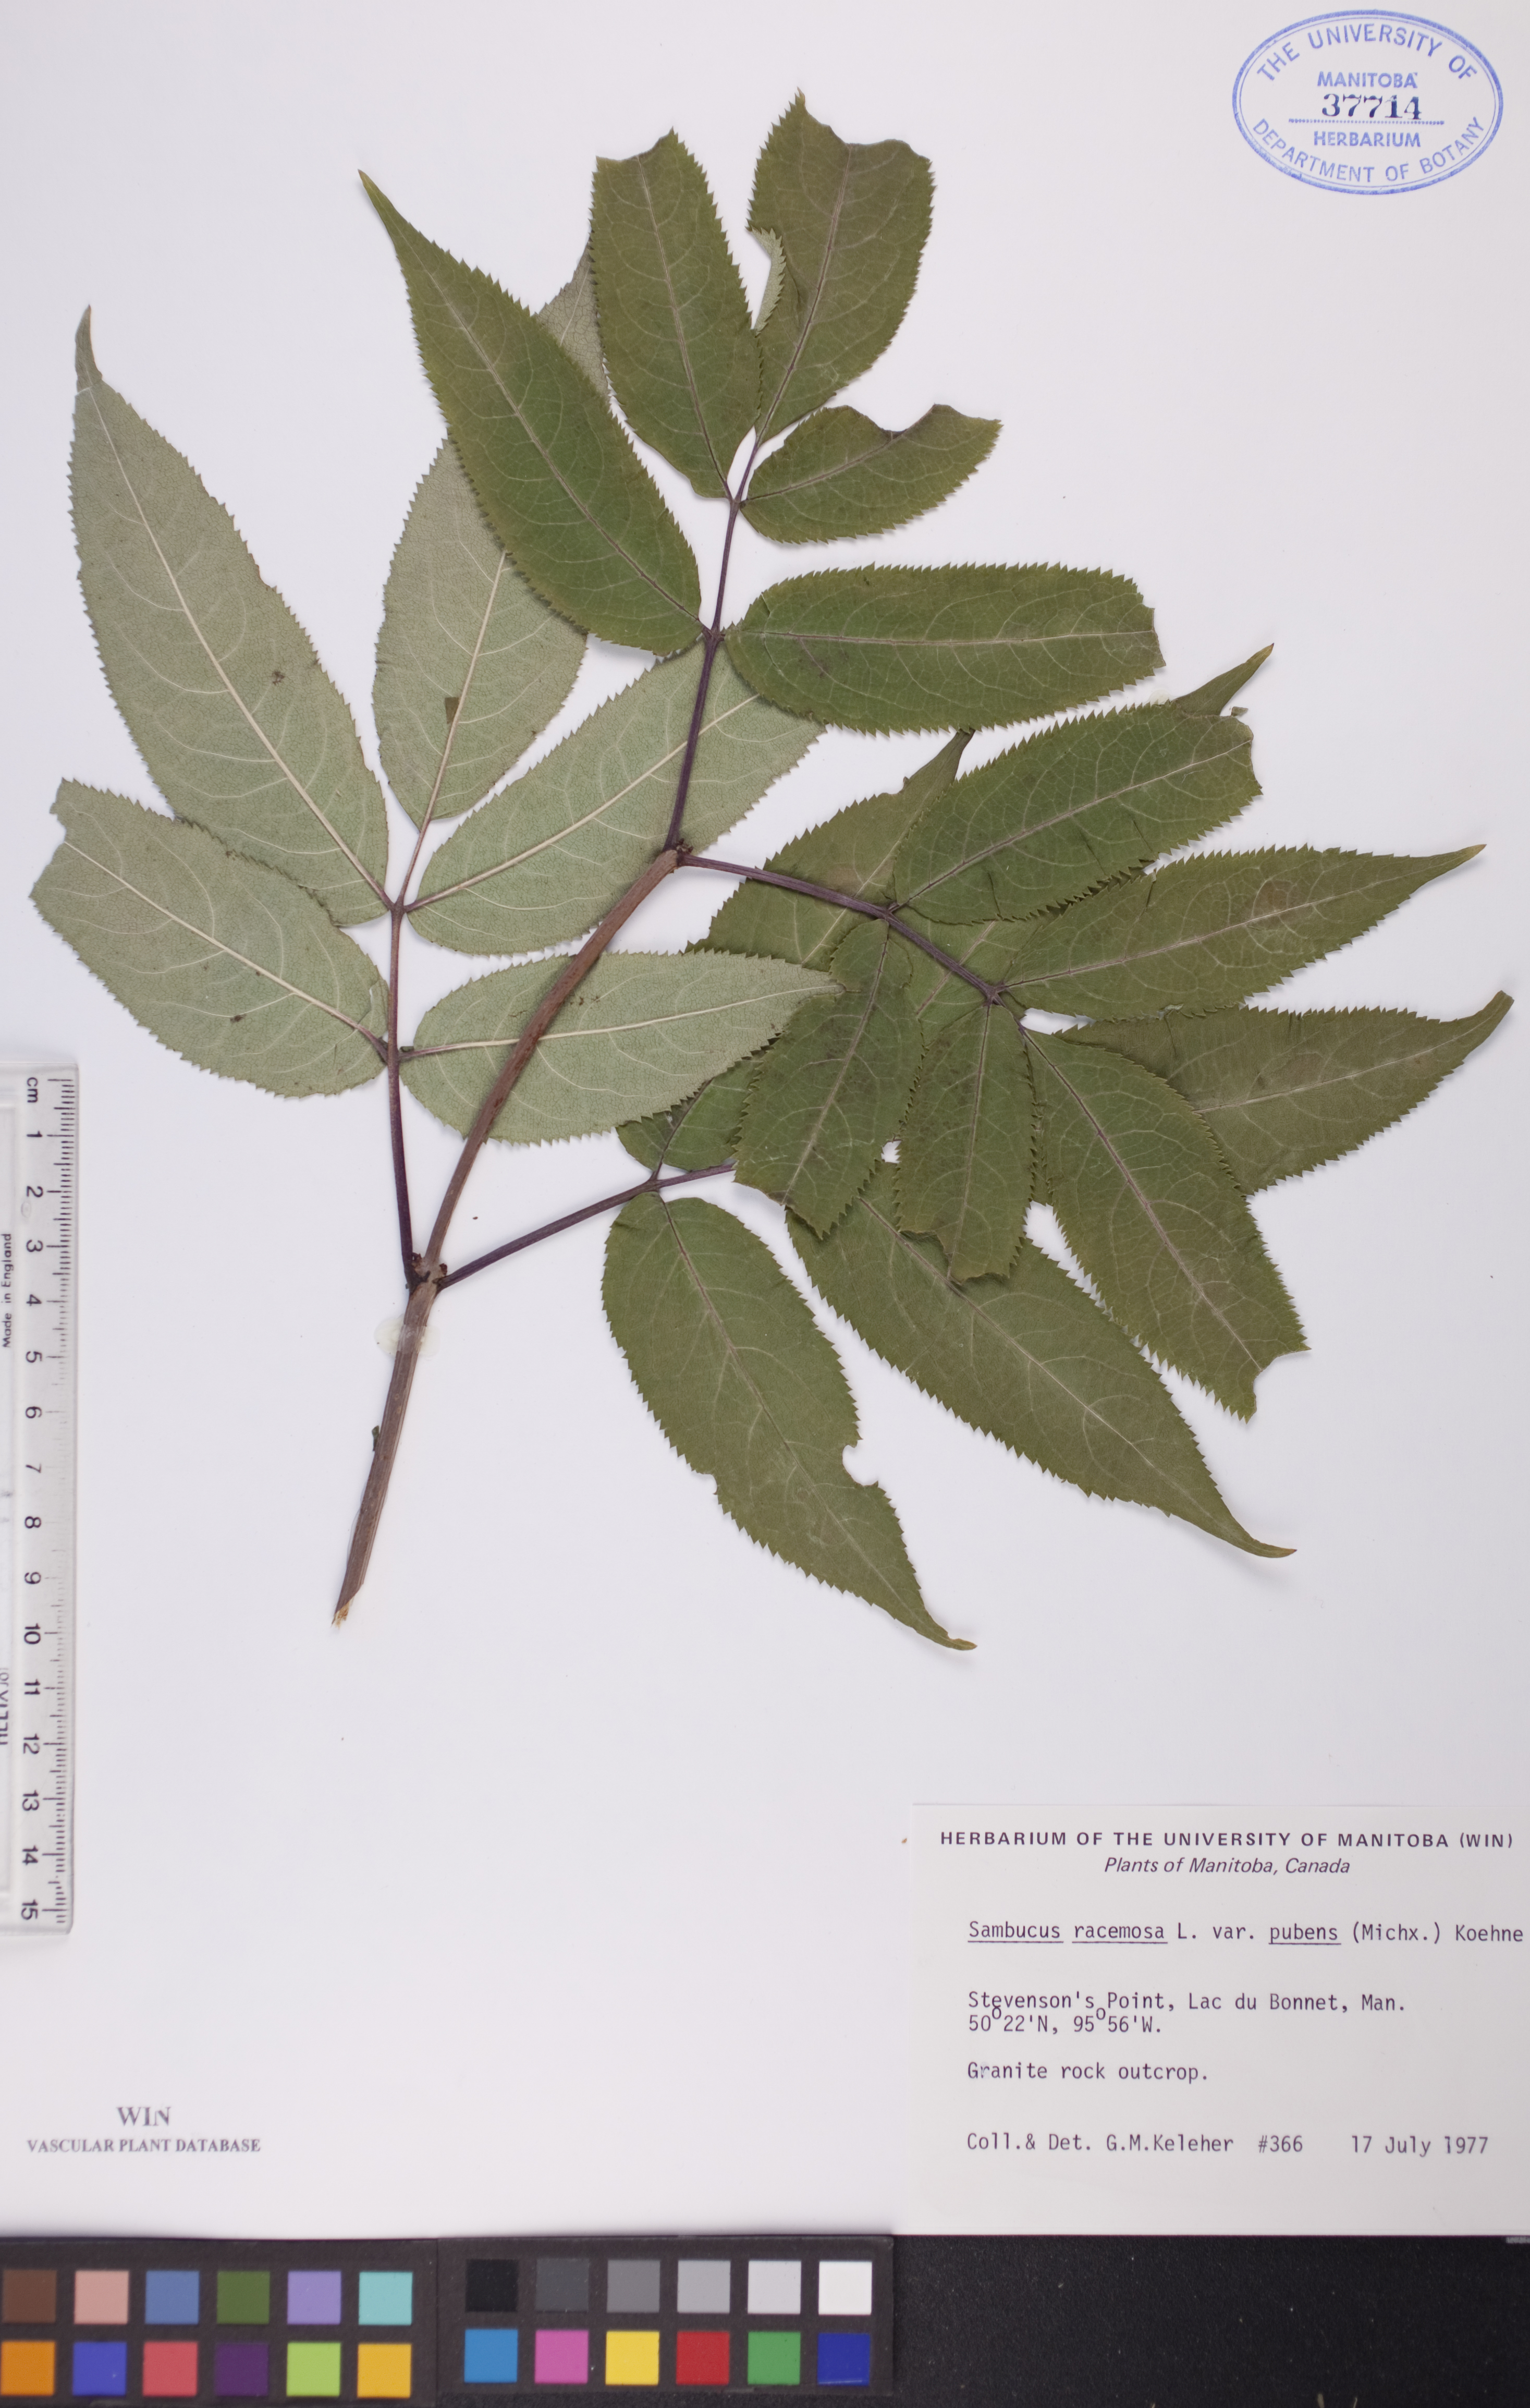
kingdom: Plantae
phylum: Tracheophyta
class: Magnoliopsida
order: Dipsacales
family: Viburnaceae
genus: Sambucus
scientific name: Sambucus racemosa
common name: Red-berried elder
